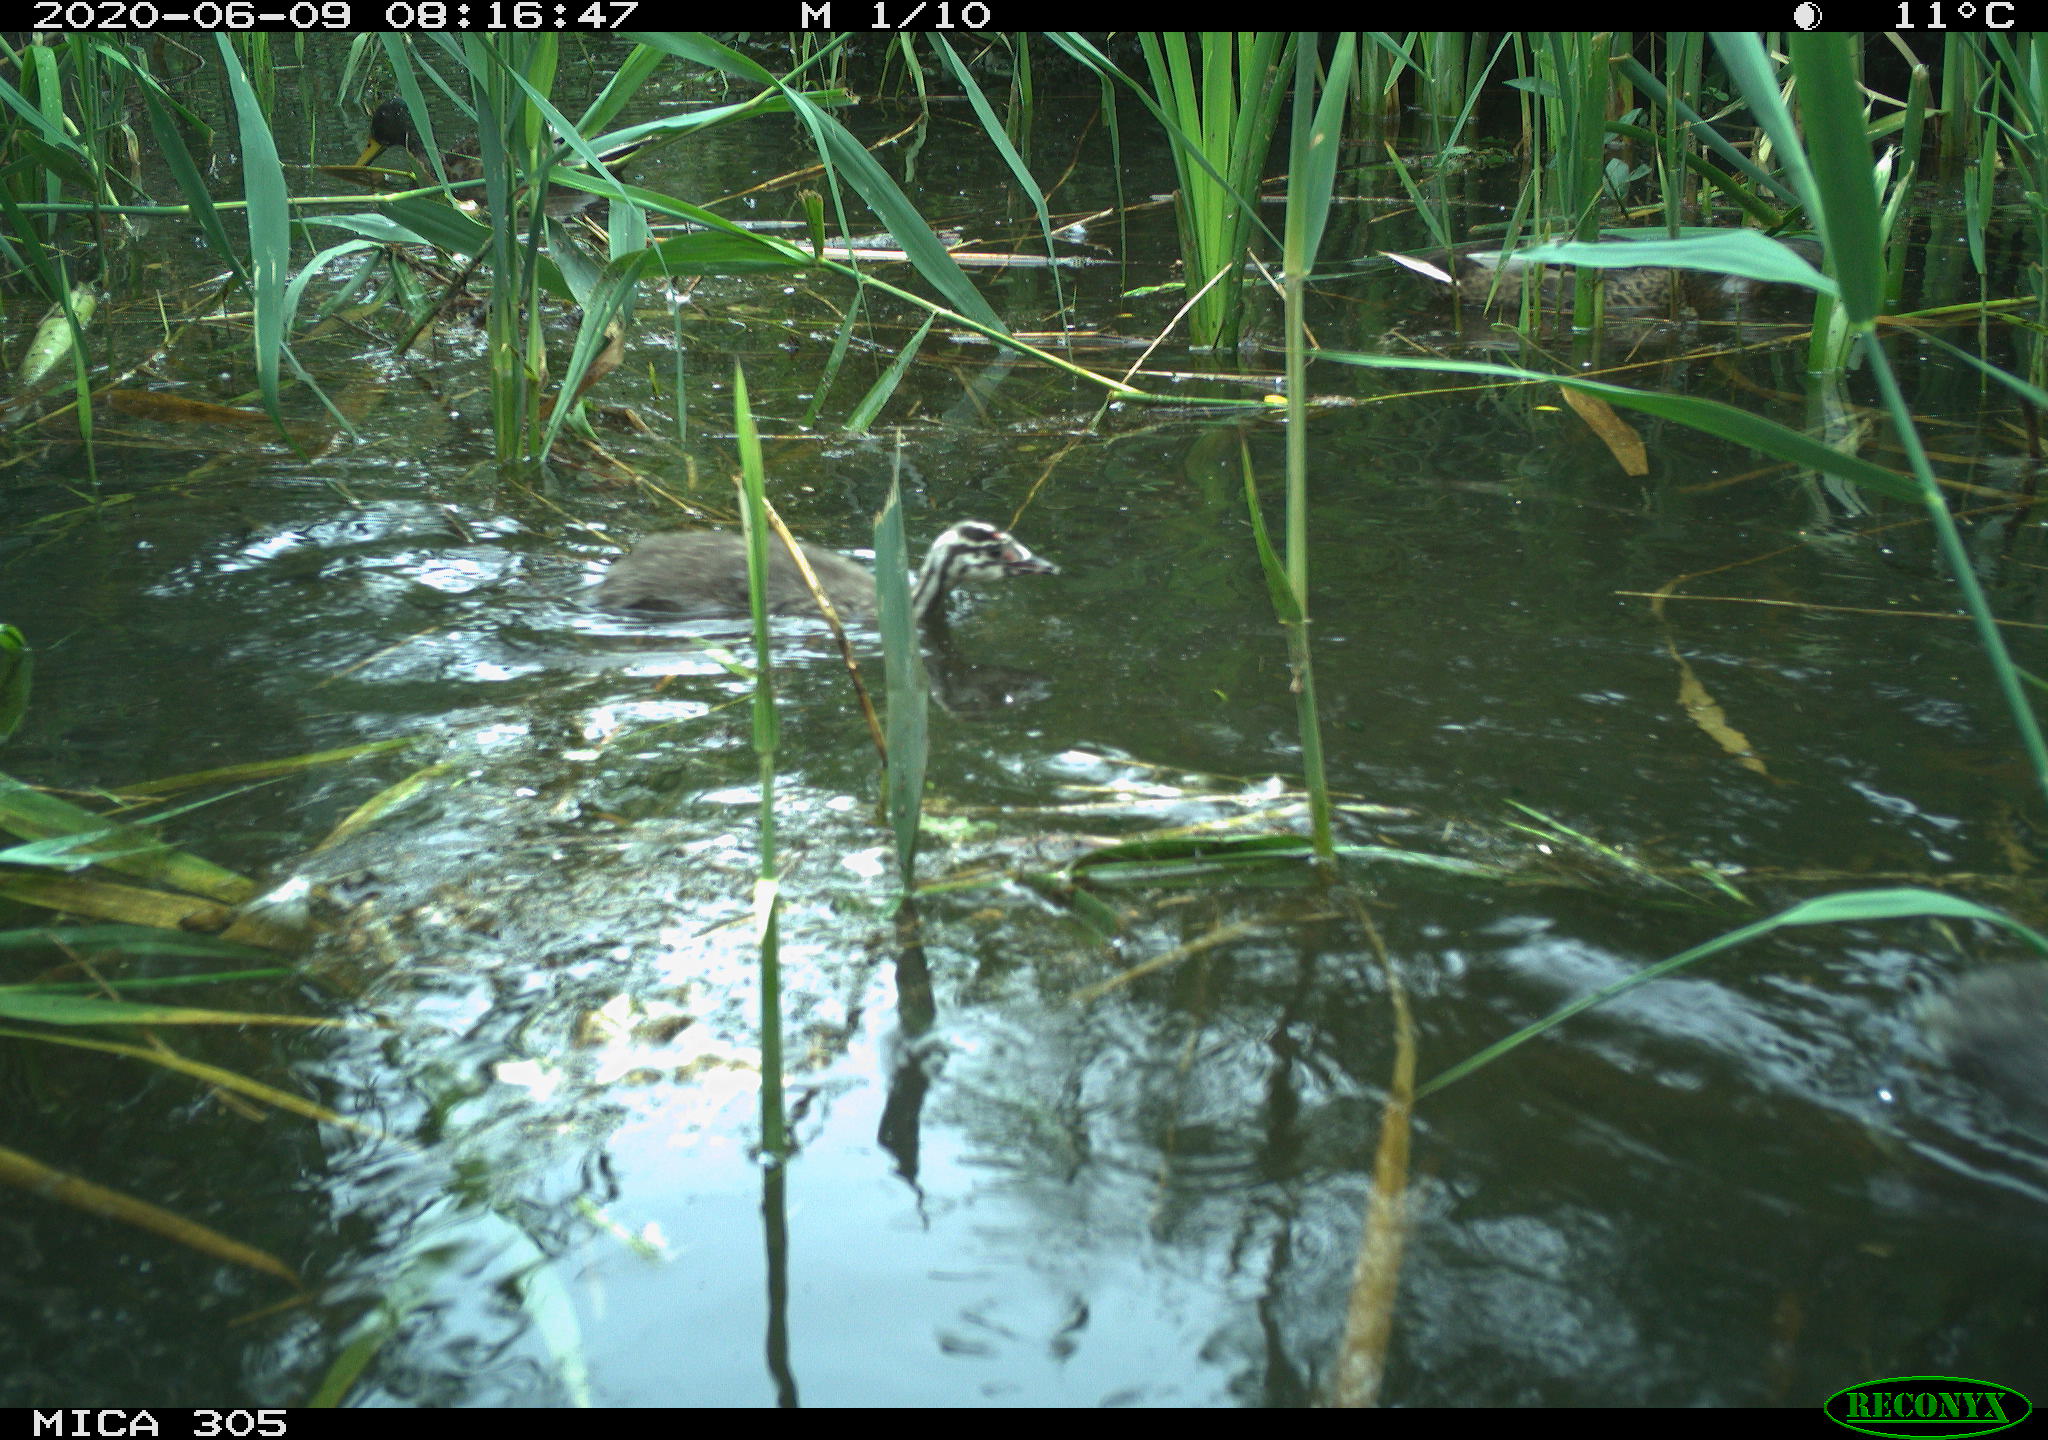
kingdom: Animalia
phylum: Chordata
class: Aves
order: Podicipediformes
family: Podicipedidae
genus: Podiceps
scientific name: Podiceps cristatus
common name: Great crested grebe
